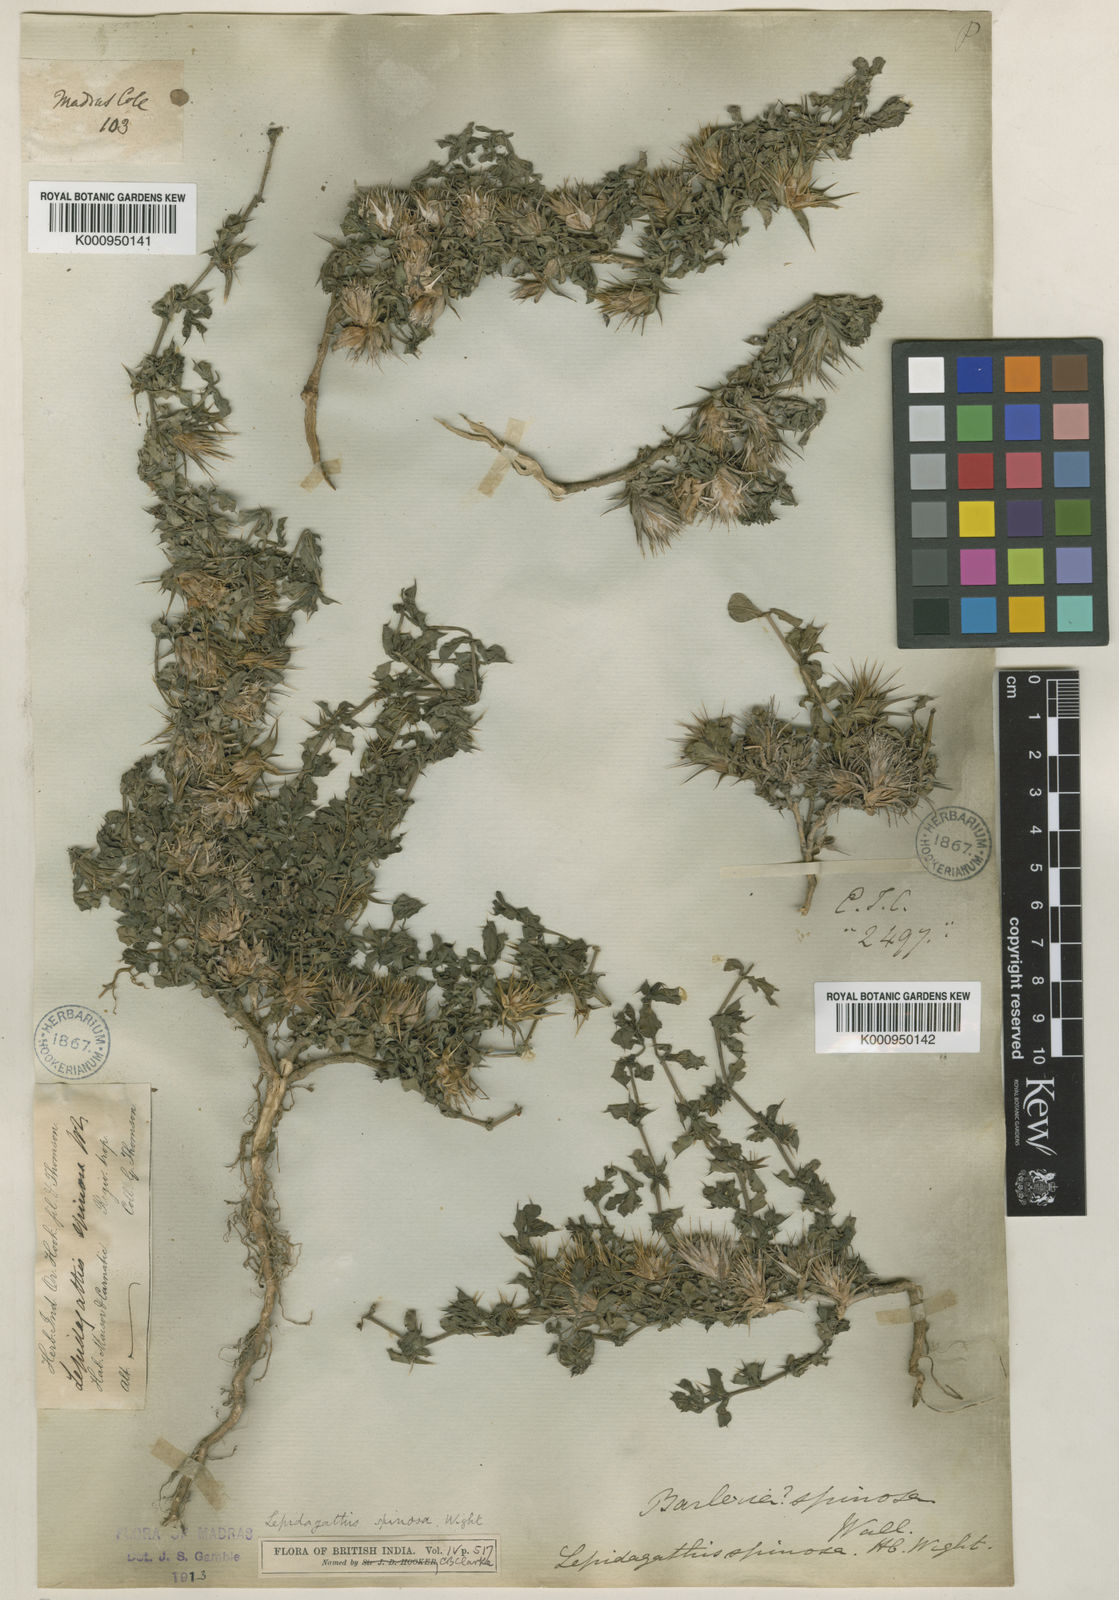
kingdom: Plantae
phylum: Tracheophyta
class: Magnoliopsida
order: Lamiales
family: Acanthaceae
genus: Lepidagathis
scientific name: Lepidagathis spinosa
